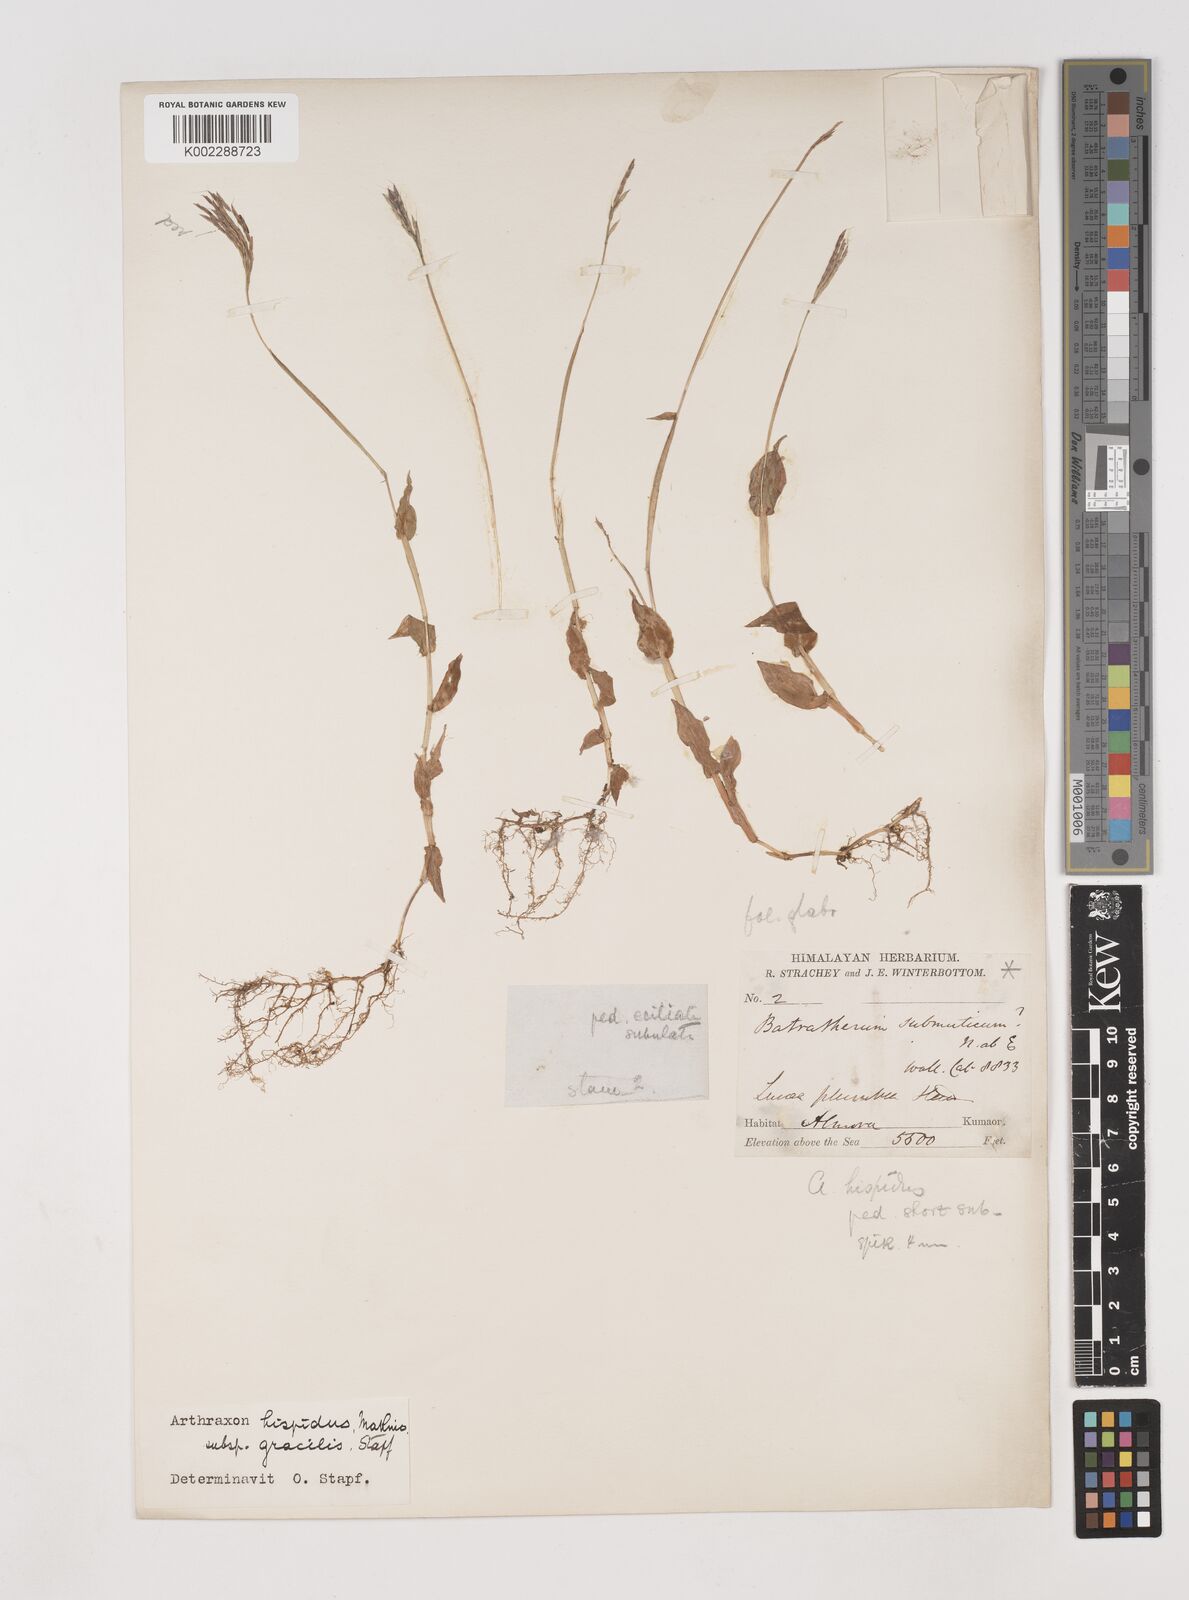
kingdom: Plantae
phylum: Tracheophyta
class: Liliopsida
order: Poales
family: Poaceae
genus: Arthraxon
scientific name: Arthraxon hispidus
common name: Small carpgrass
